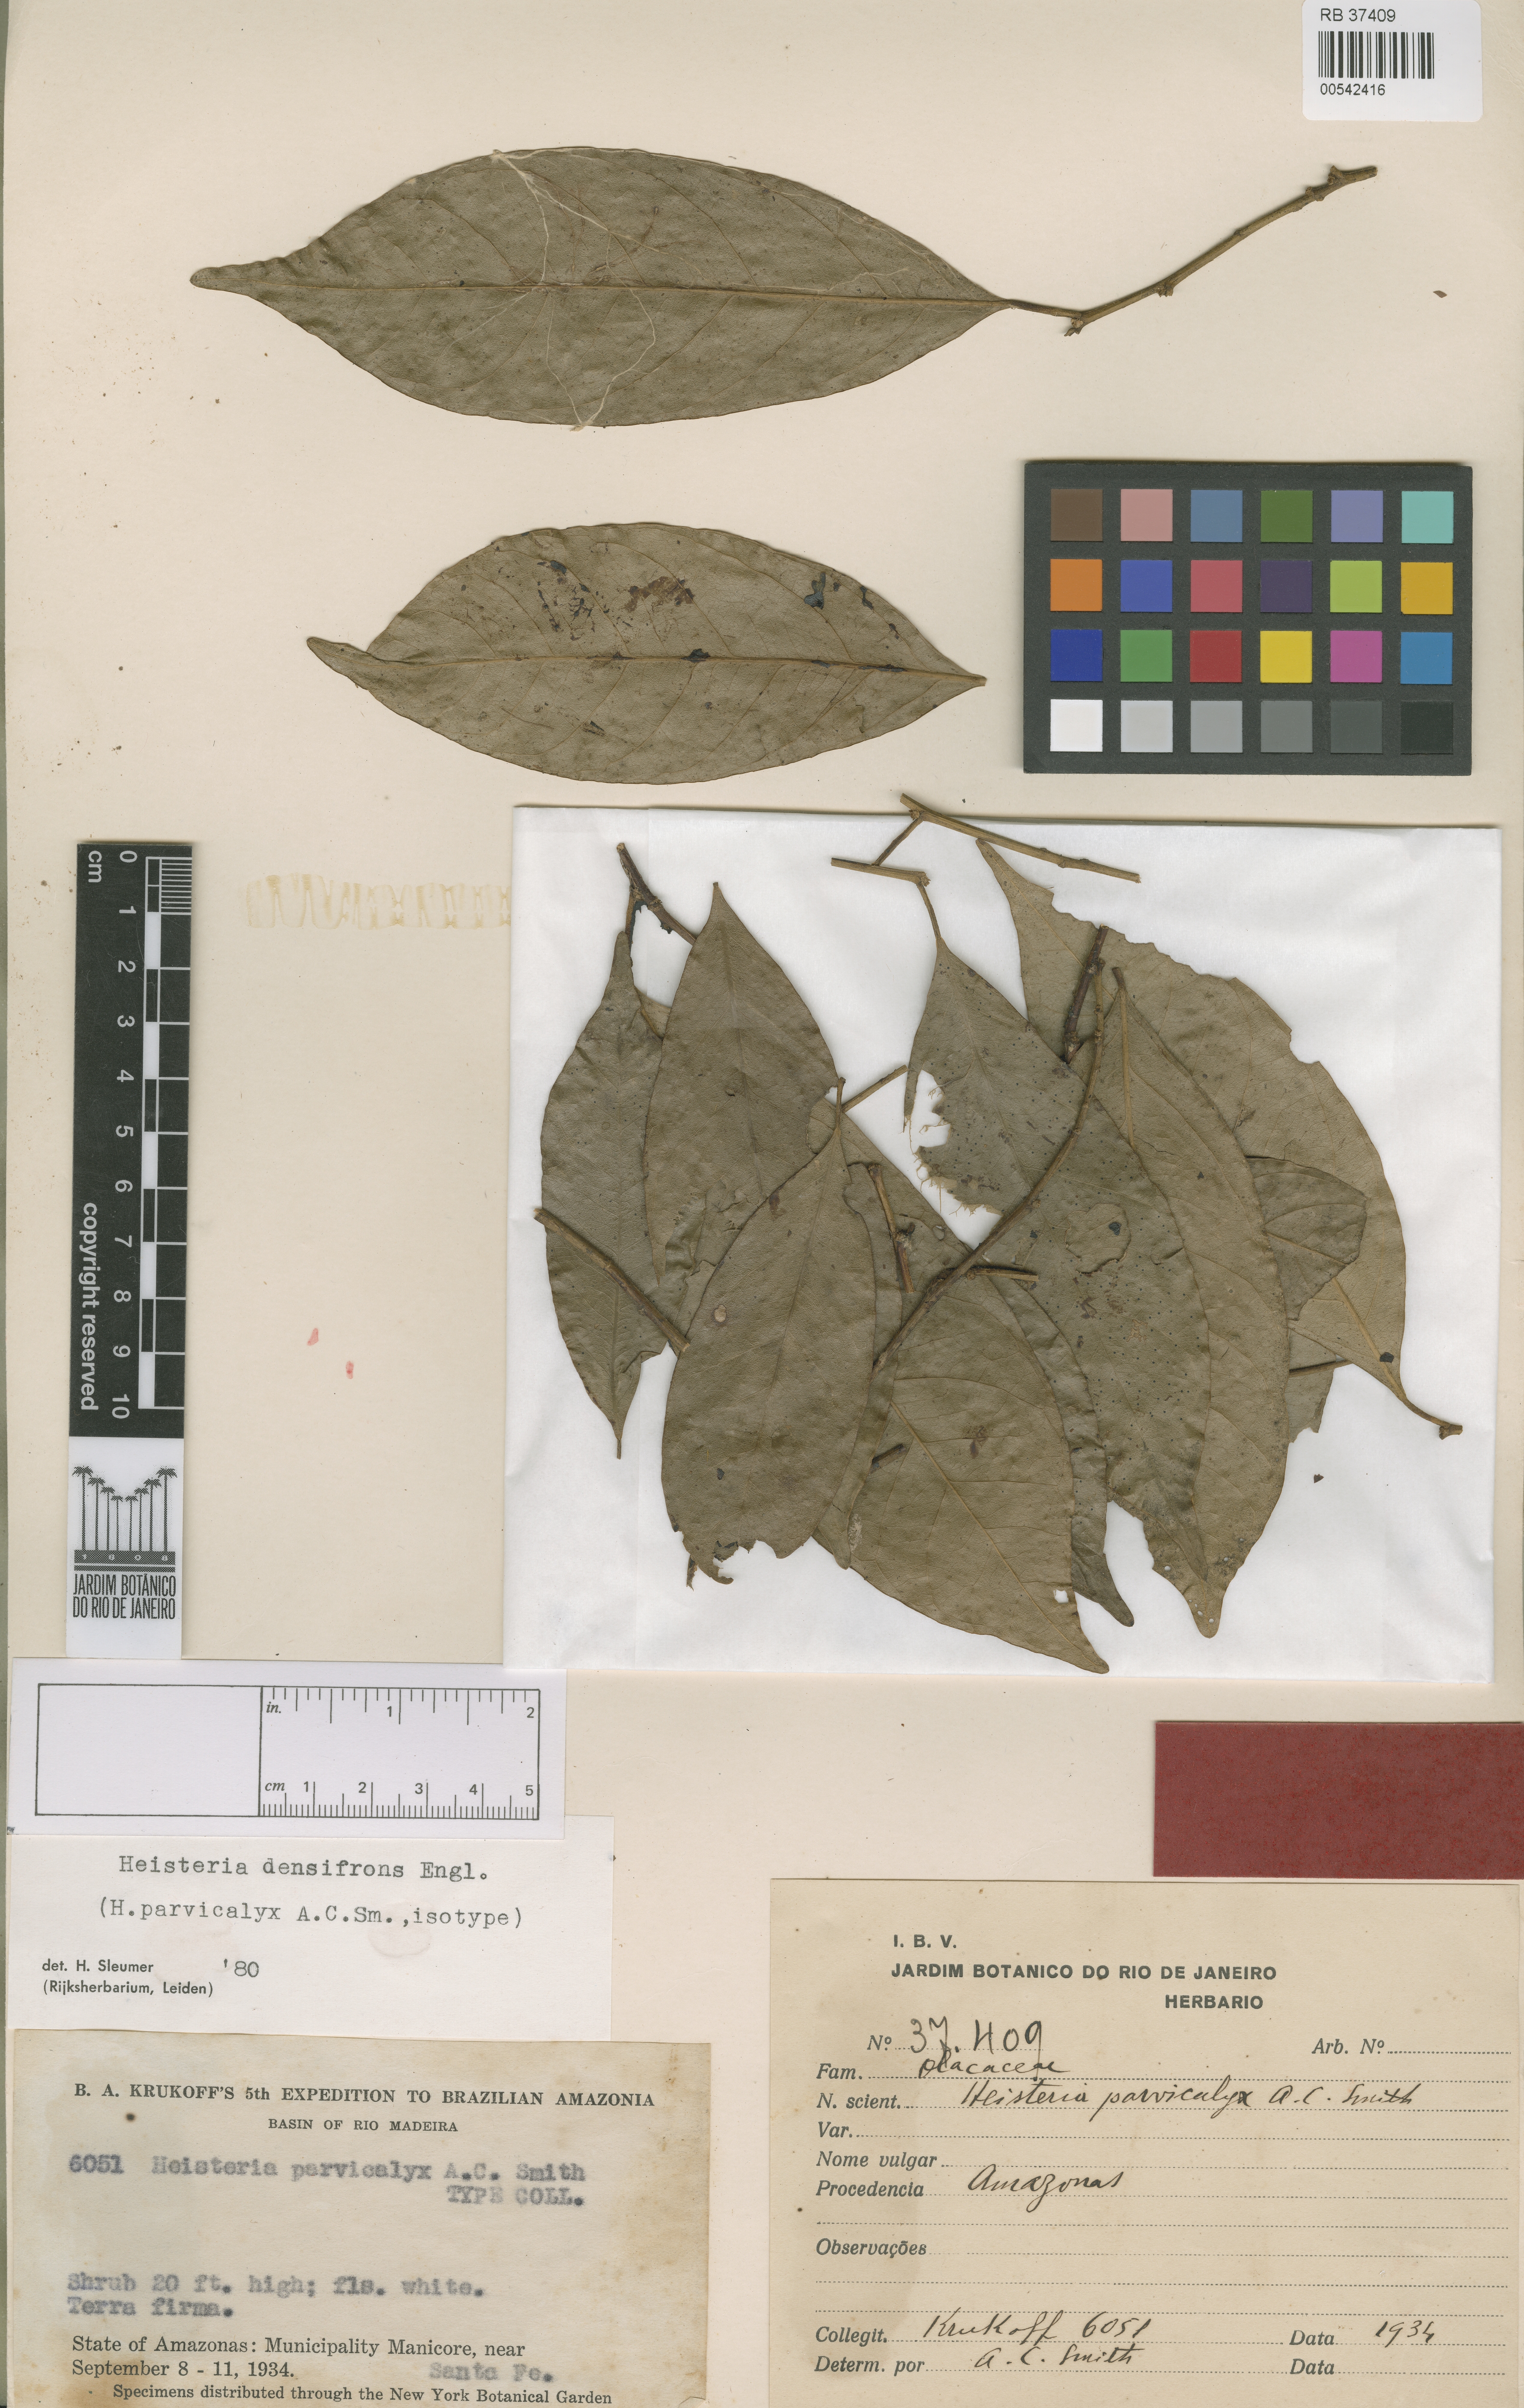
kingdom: Plantae
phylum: Tracheophyta
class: Magnoliopsida
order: Santalales
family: Erythropalaceae
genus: Heisteria
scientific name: Heisteria densifrons
